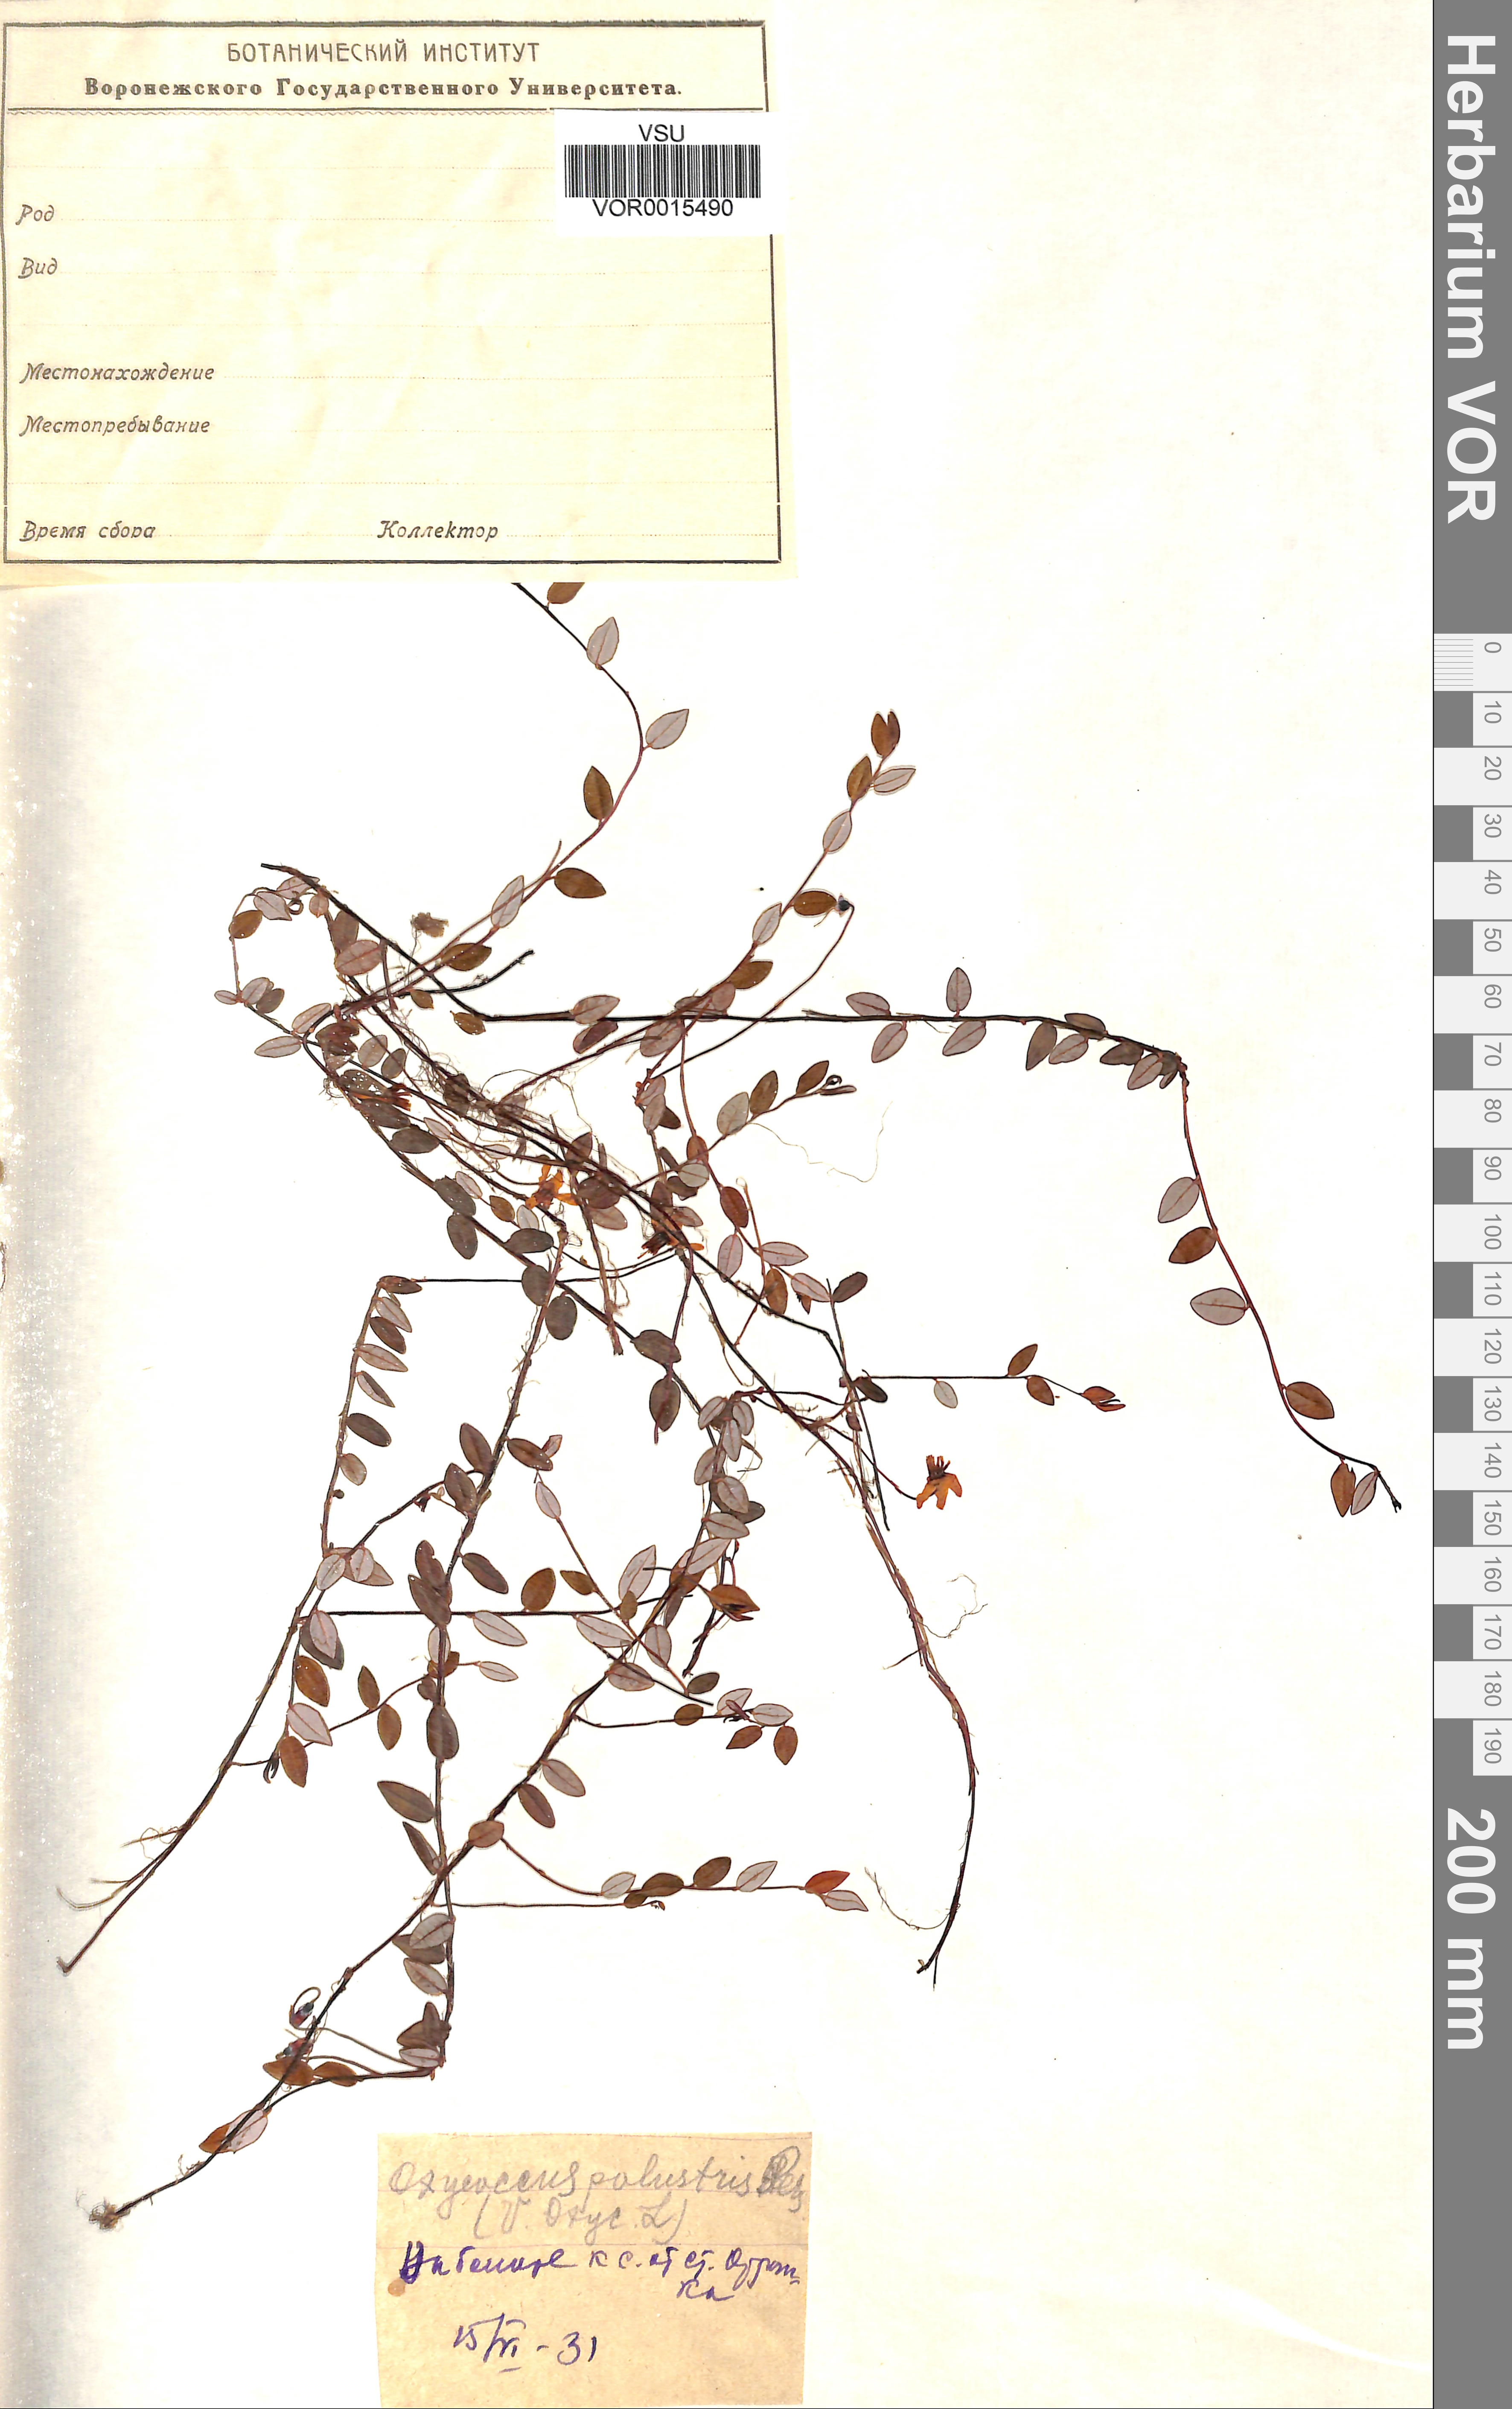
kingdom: Plantae
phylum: Tracheophyta
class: Magnoliopsida
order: Ericales
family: Ericaceae
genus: Vaccinium
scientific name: Vaccinium oxycoccos
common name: Cranberry
